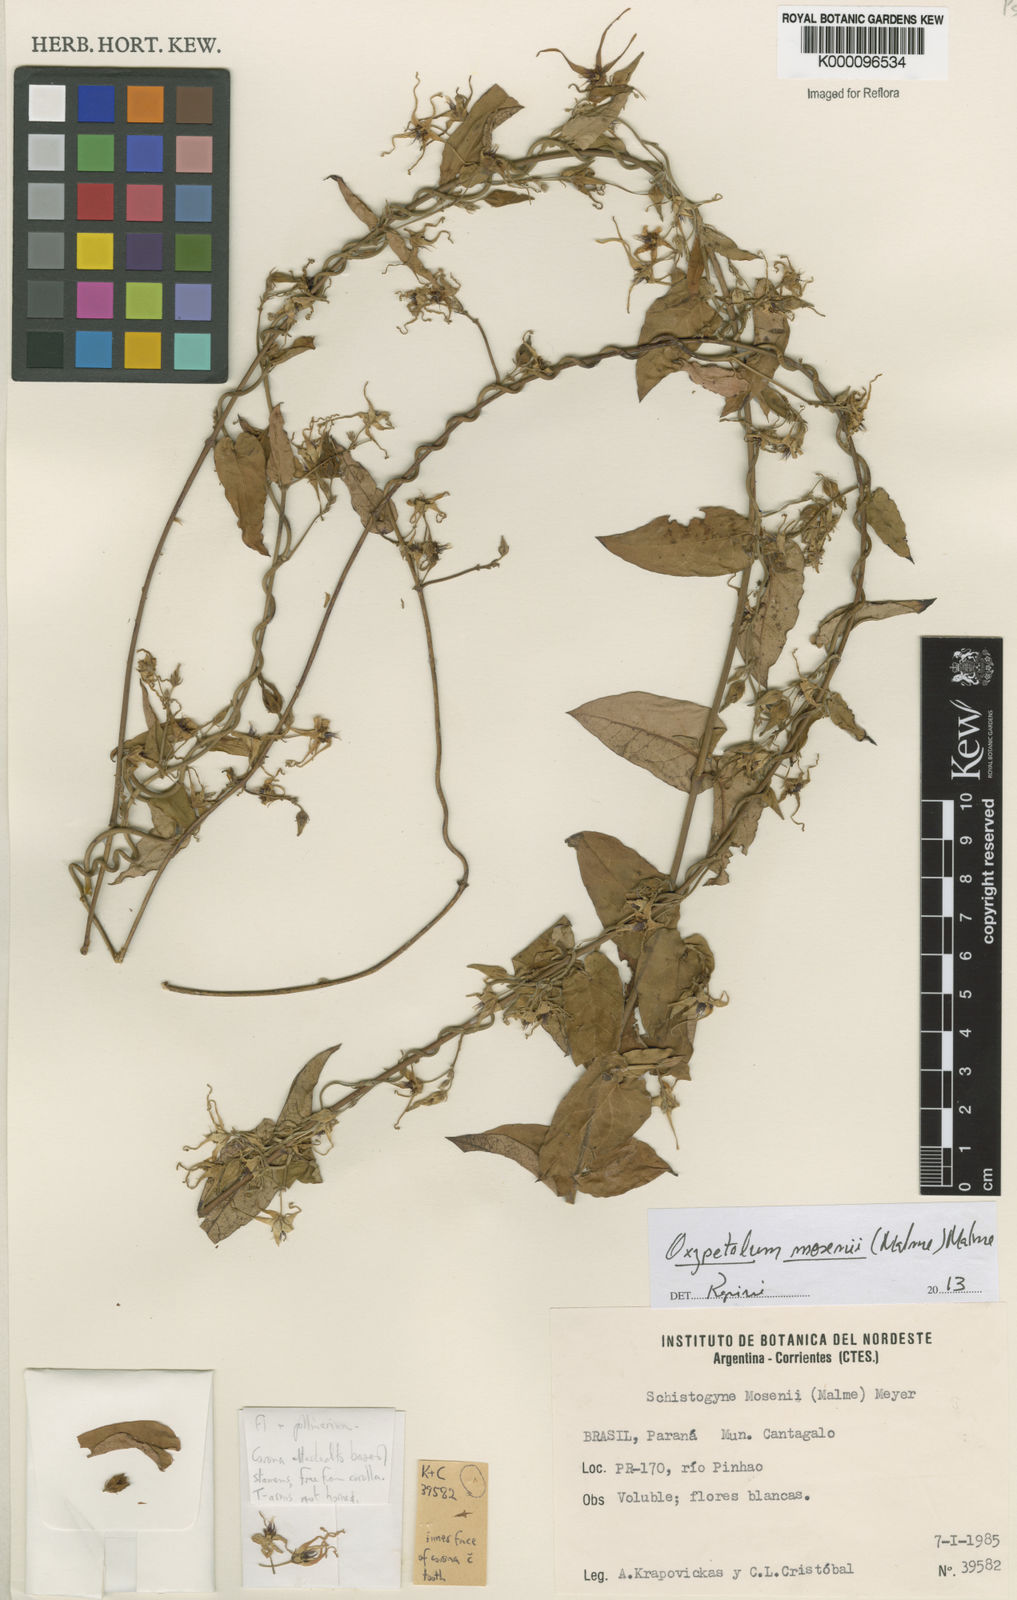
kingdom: Plantae
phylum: Tracheophyta
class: Magnoliopsida
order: Gentianales
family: Apocynaceae
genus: Oxypetalum
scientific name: Oxypetalum mosenii
